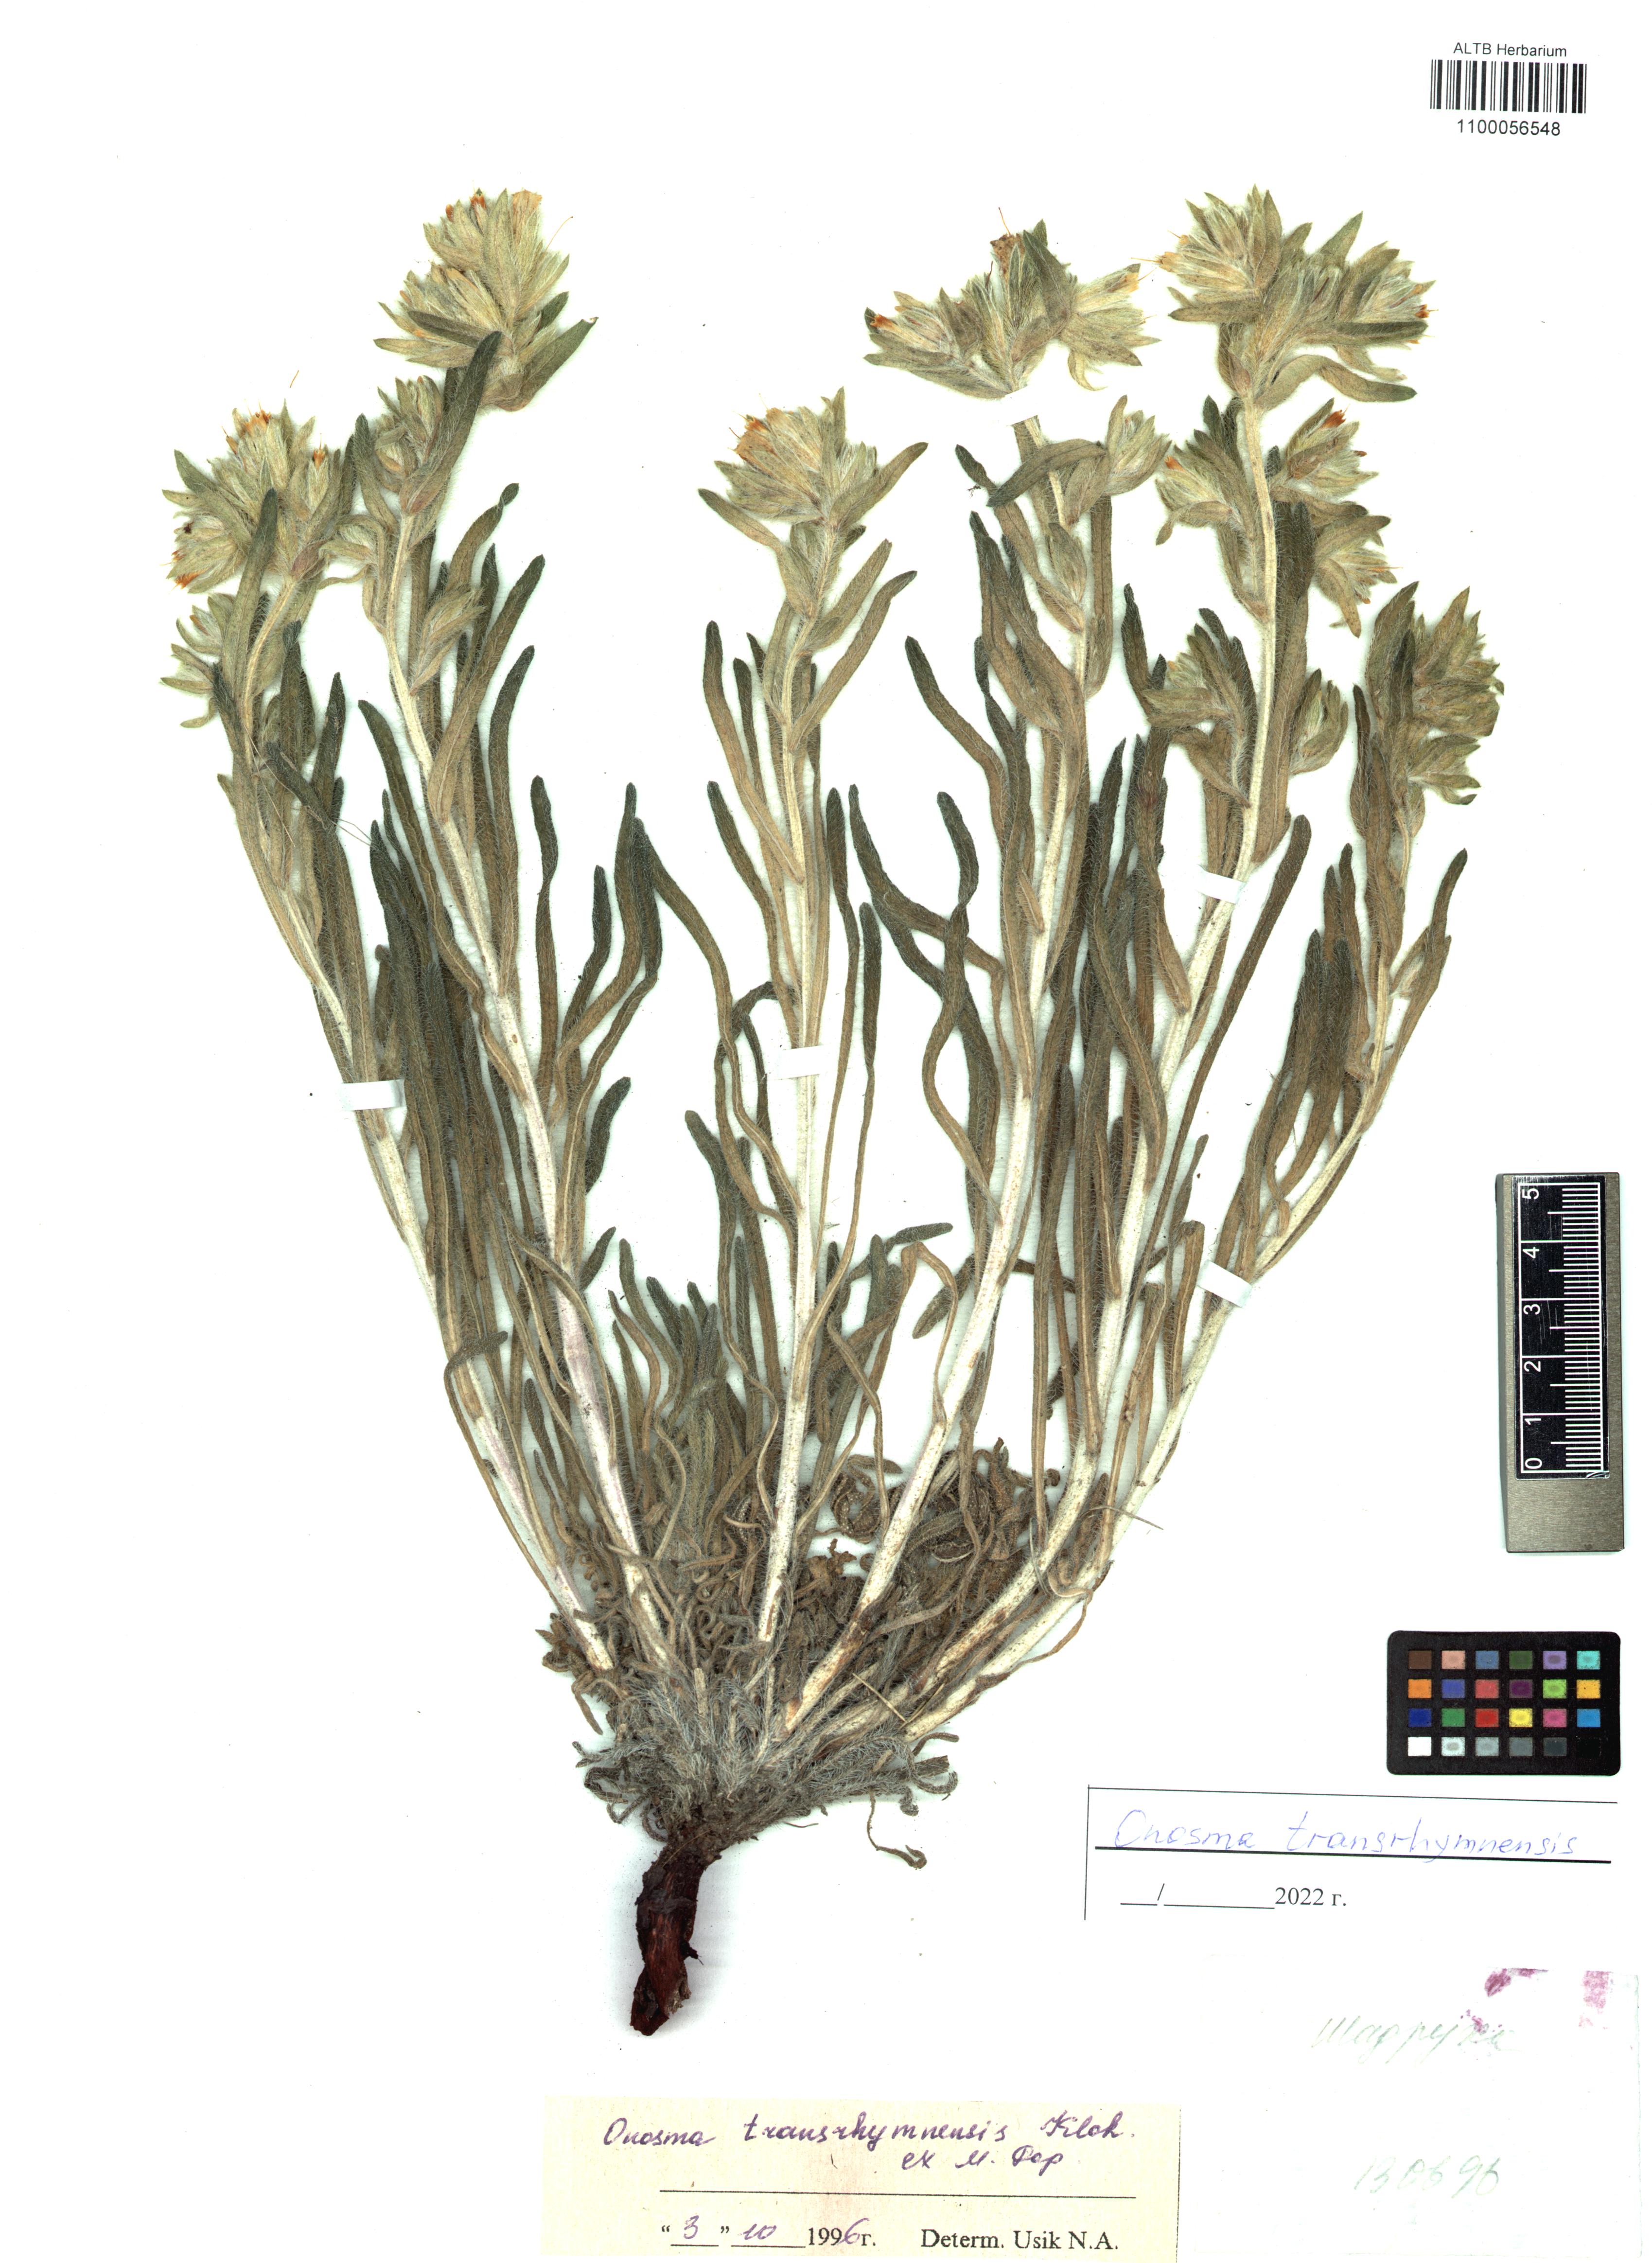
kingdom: Plantae
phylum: Tracheophyta
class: Magnoliopsida
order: Boraginales
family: Boraginaceae
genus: Onosma
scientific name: Onosma setosa
